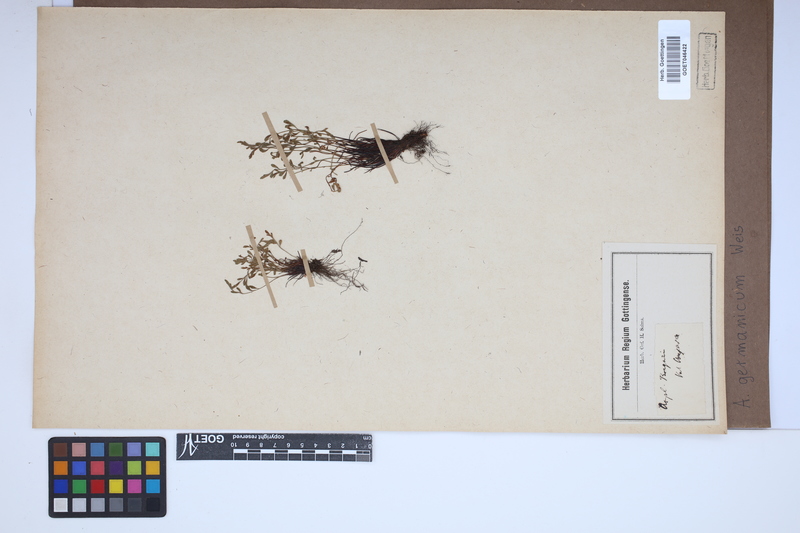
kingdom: Plantae
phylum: Tracheophyta
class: Polypodiopsida
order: Polypodiales
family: Aspleniaceae
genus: Asplenium
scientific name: Asplenium
